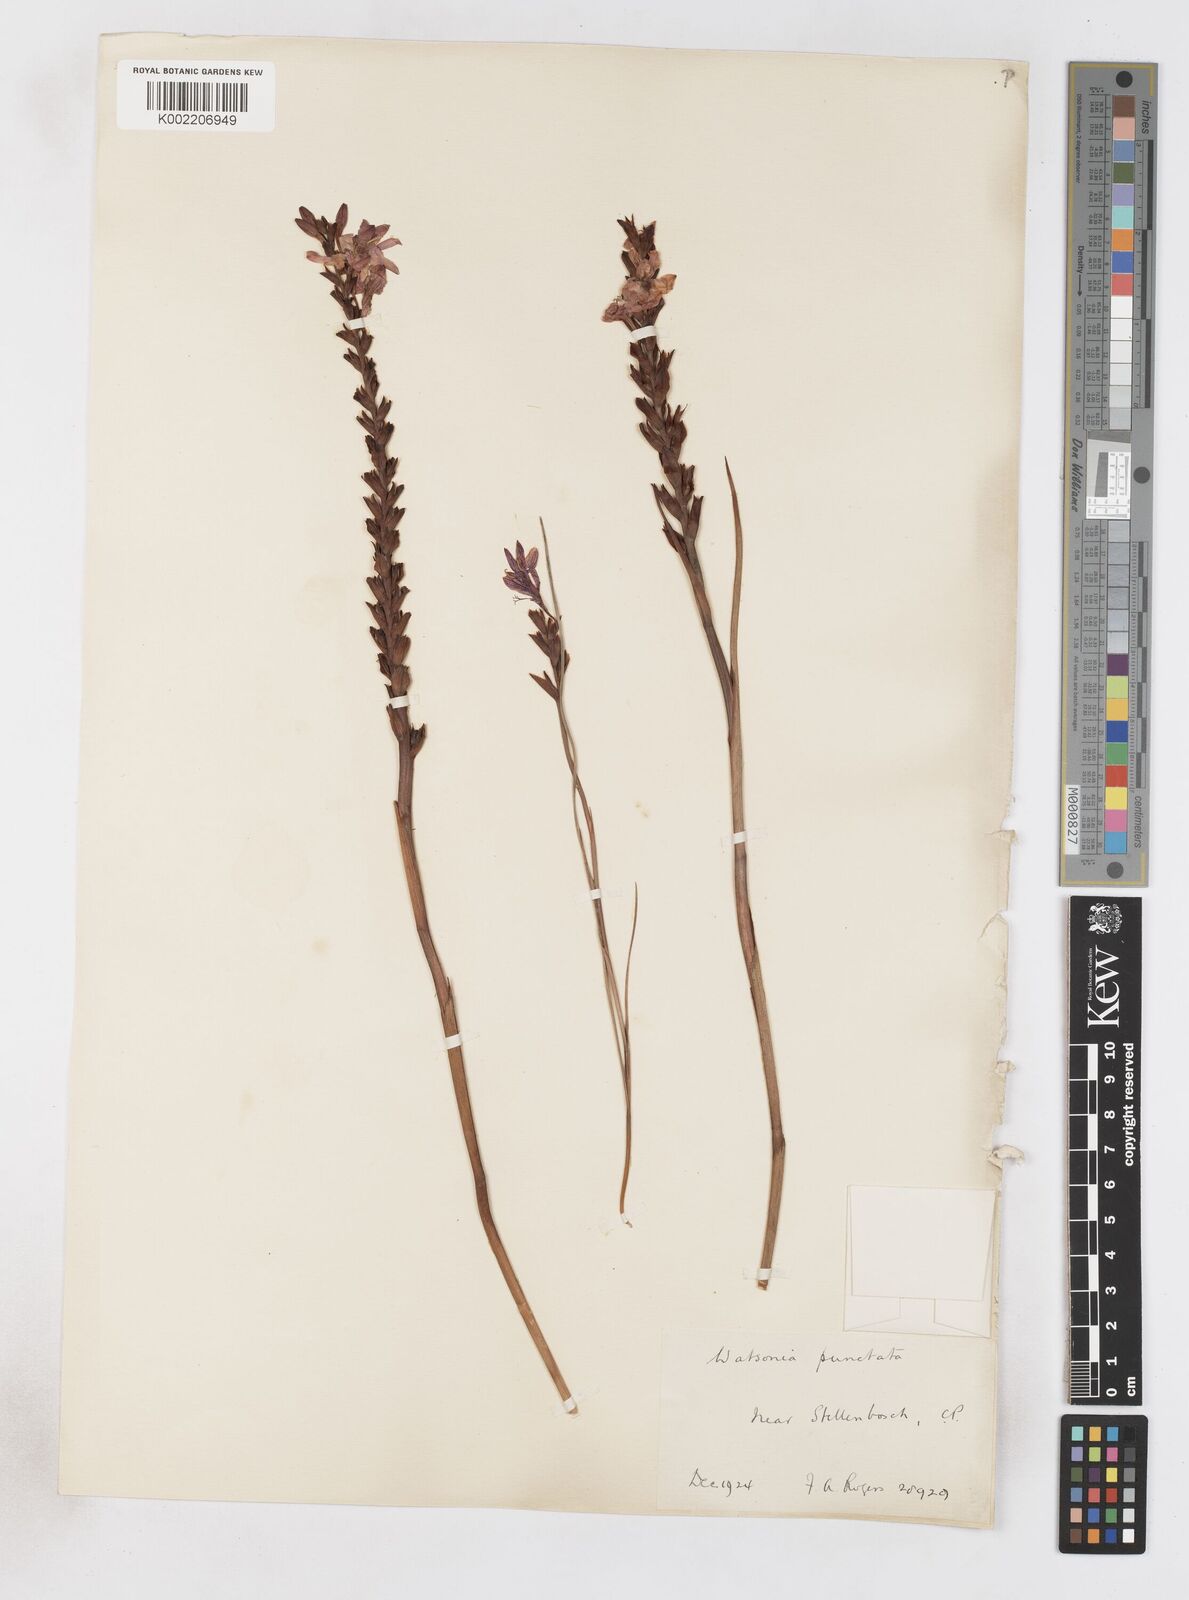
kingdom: Plantae
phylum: Tracheophyta
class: Liliopsida
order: Asparagales
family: Iridaceae
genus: Thereianthus
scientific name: Thereianthus spicatus
